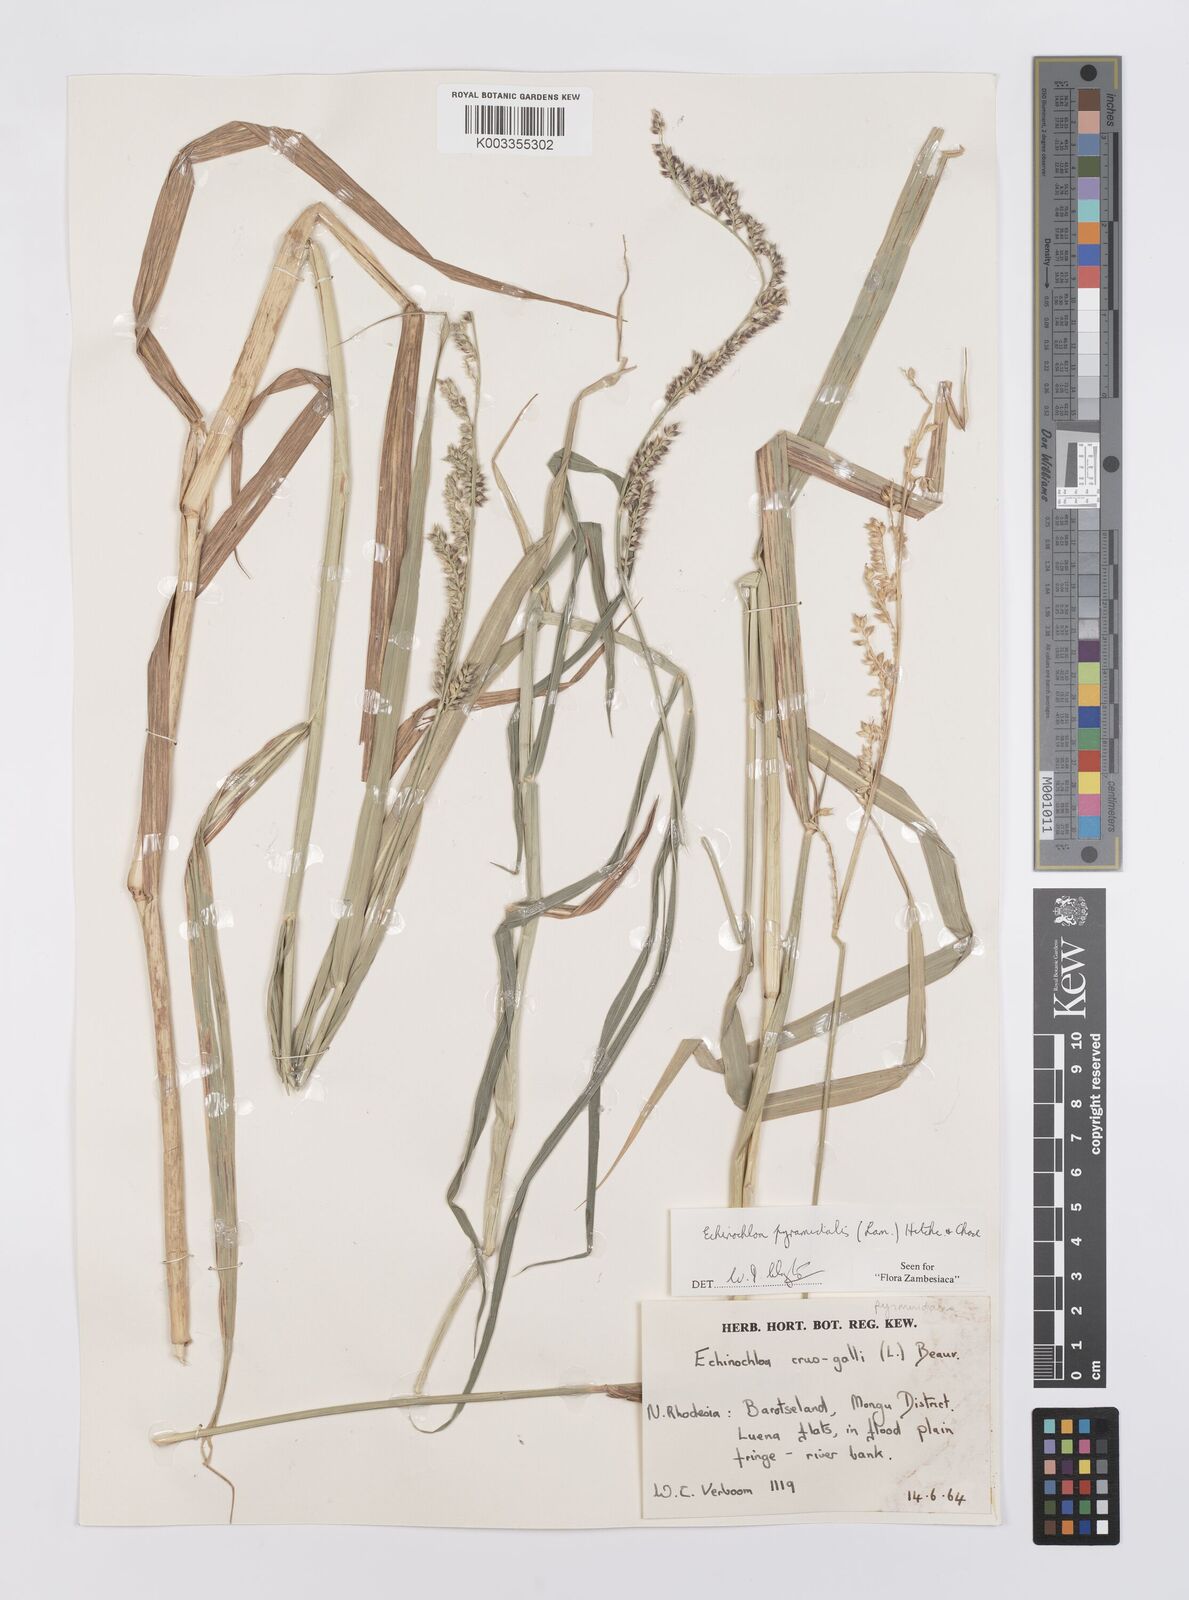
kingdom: Plantae
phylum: Tracheophyta
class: Liliopsida
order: Poales
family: Poaceae
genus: Echinochloa
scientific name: Echinochloa pyramidalis
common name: Antelope grass
